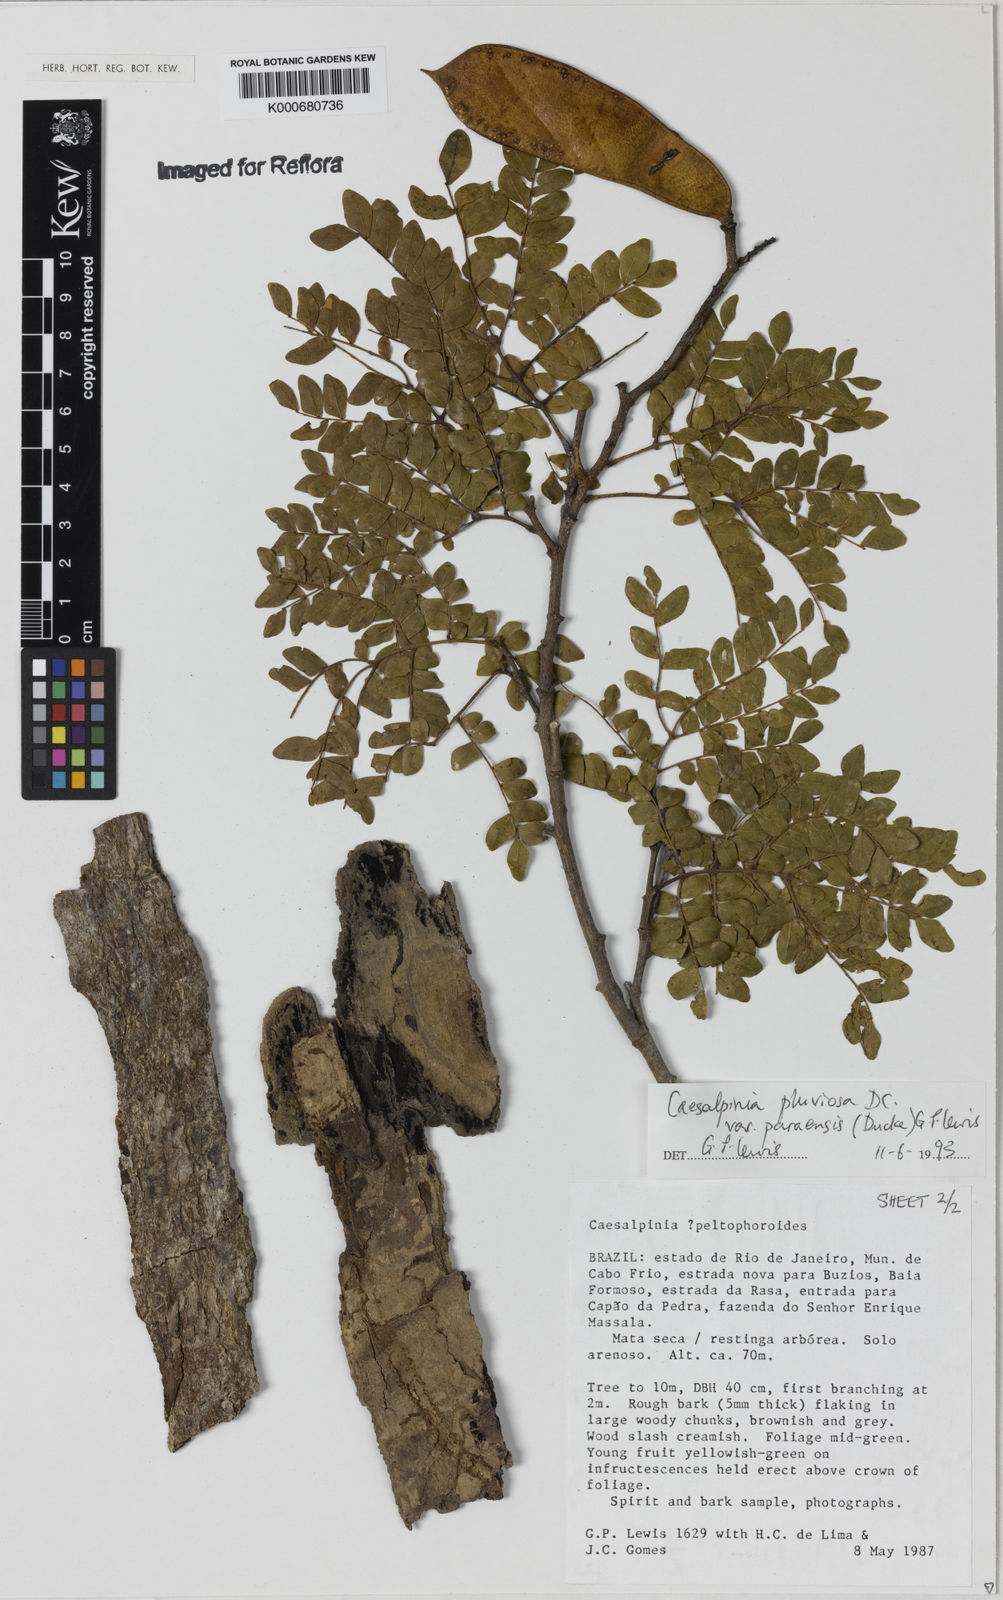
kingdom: Plantae
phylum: Tracheophyta
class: Magnoliopsida
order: Fabales
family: Fabaceae
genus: Cenostigma
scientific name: Cenostigma pluviosum
